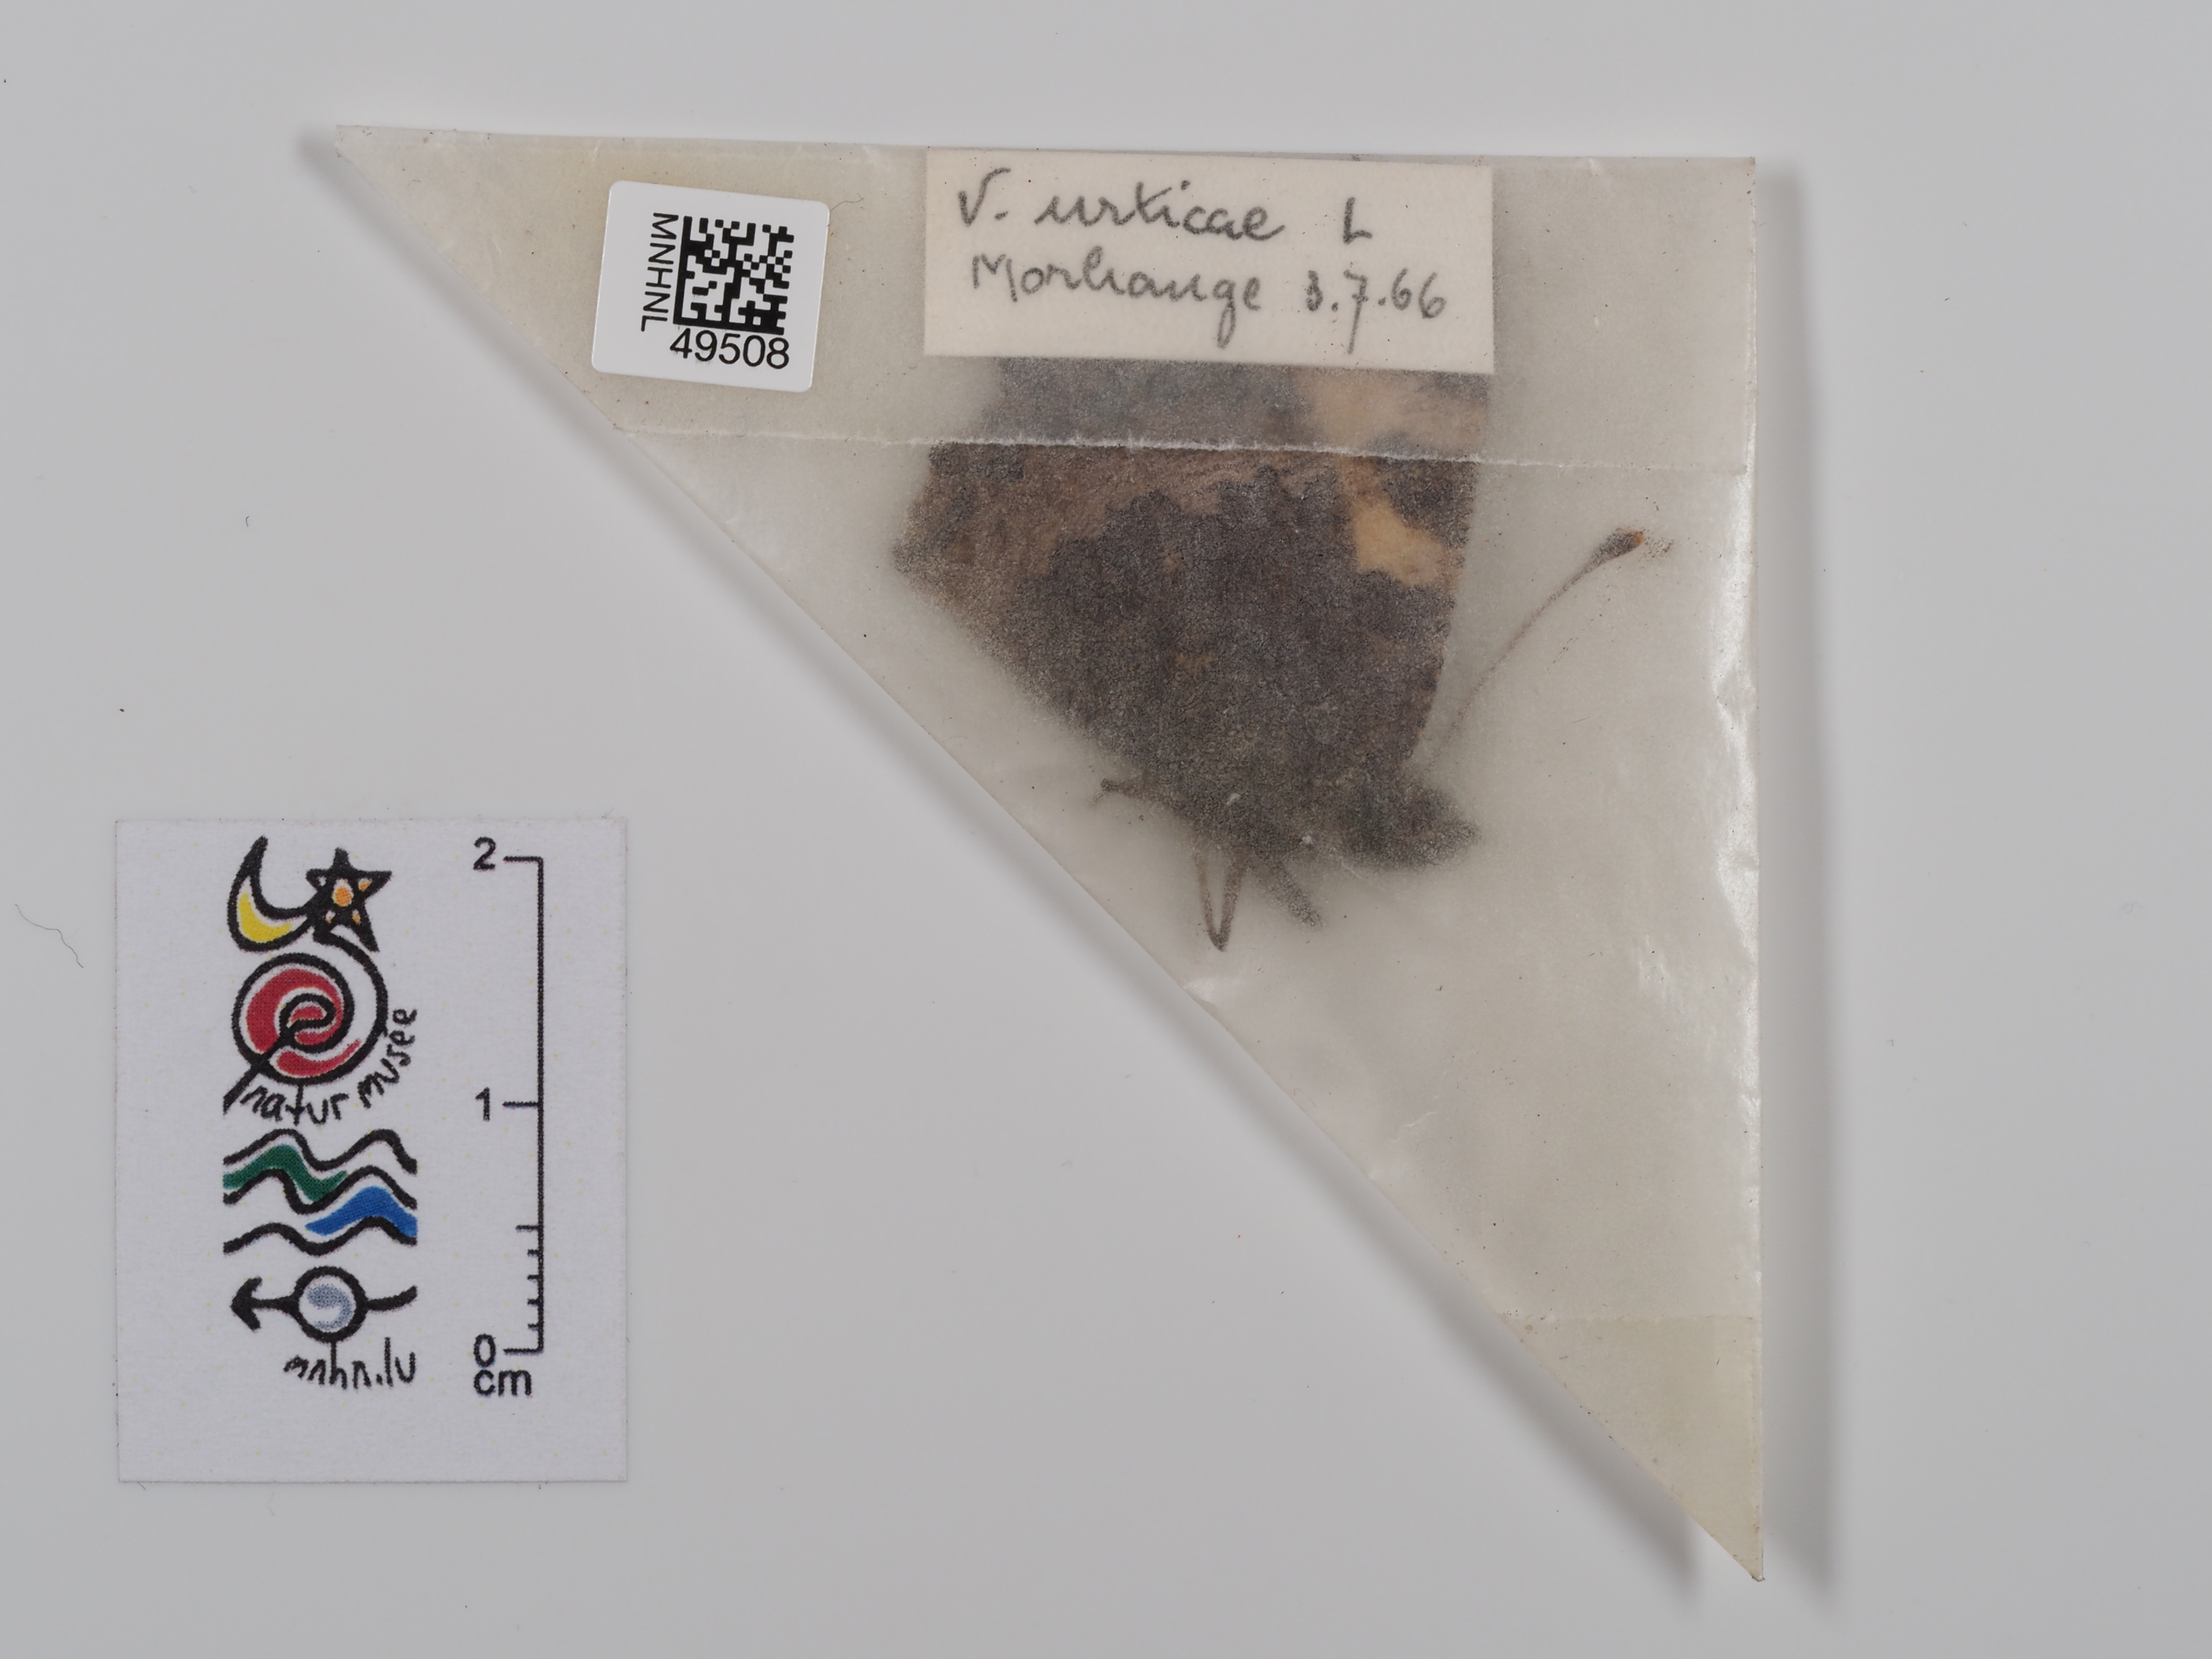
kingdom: Animalia
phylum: Arthropoda
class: Insecta
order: Lepidoptera
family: Nymphalidae
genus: Aglais
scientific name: Aglais urticae
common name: Small tortoiseshell
